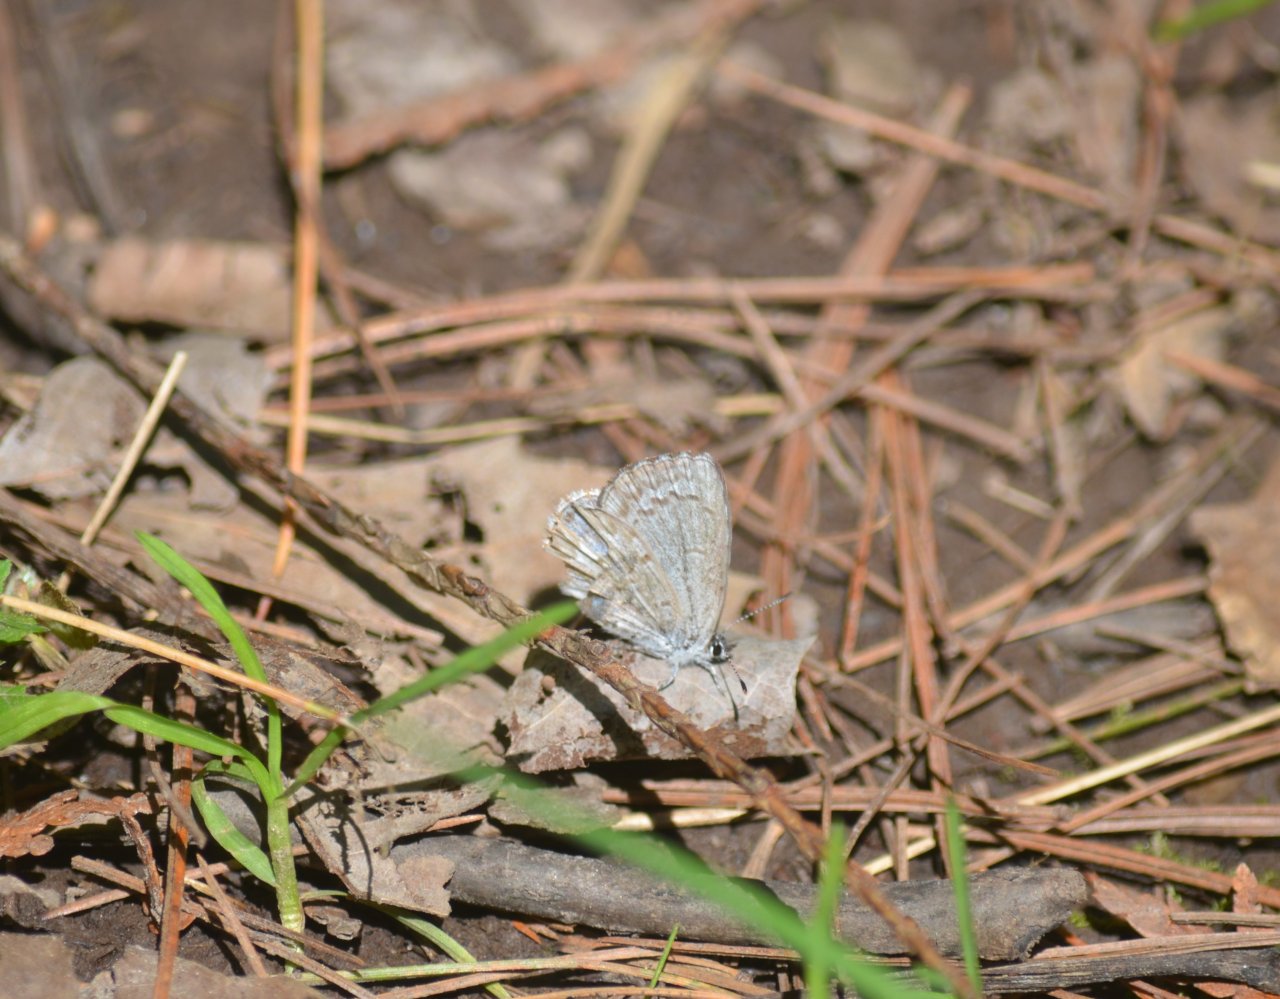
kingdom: Animalia
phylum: Arthropoda
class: Insecta
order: Lepidoptera
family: Lycaenidae
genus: Celastrina
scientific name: Celastrina lucia
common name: Northern Spring Azure
